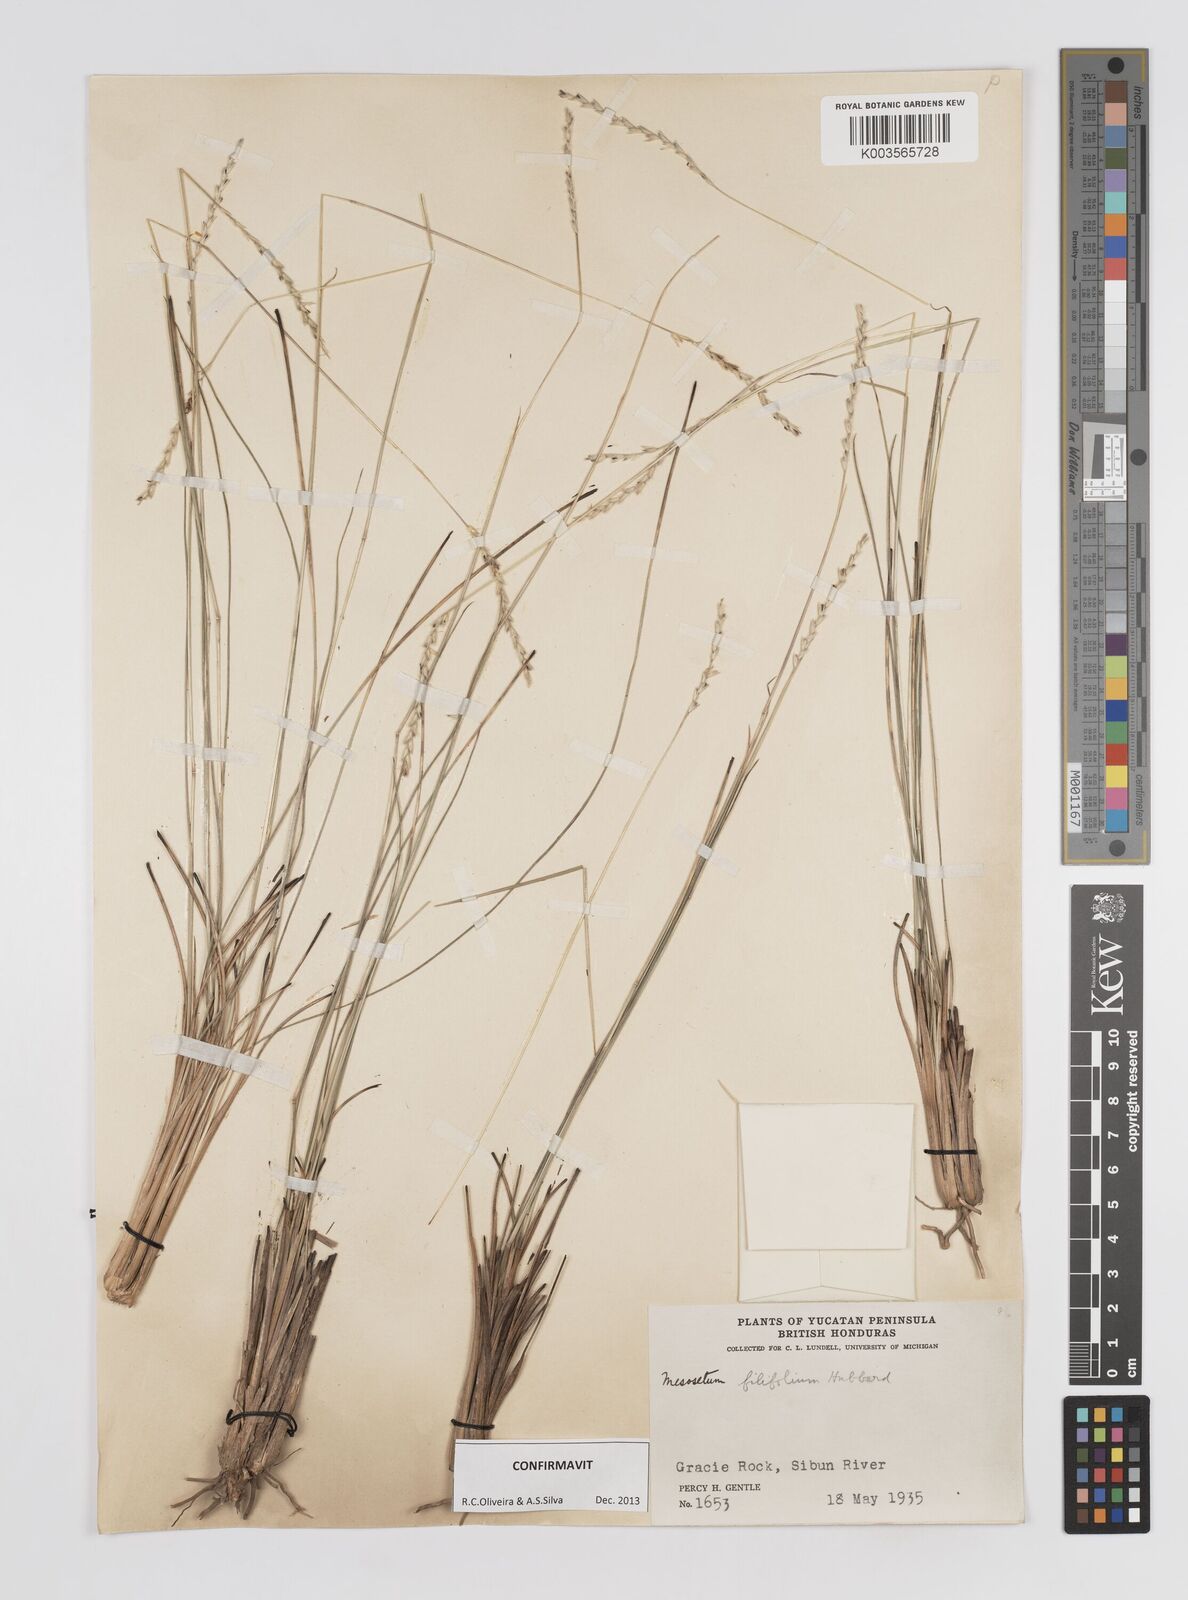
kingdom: Plantae
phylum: Tracheophyta
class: Liliopsida
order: Poales
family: Poaceae
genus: Mesosetum
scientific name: Mesosetum filifolium
